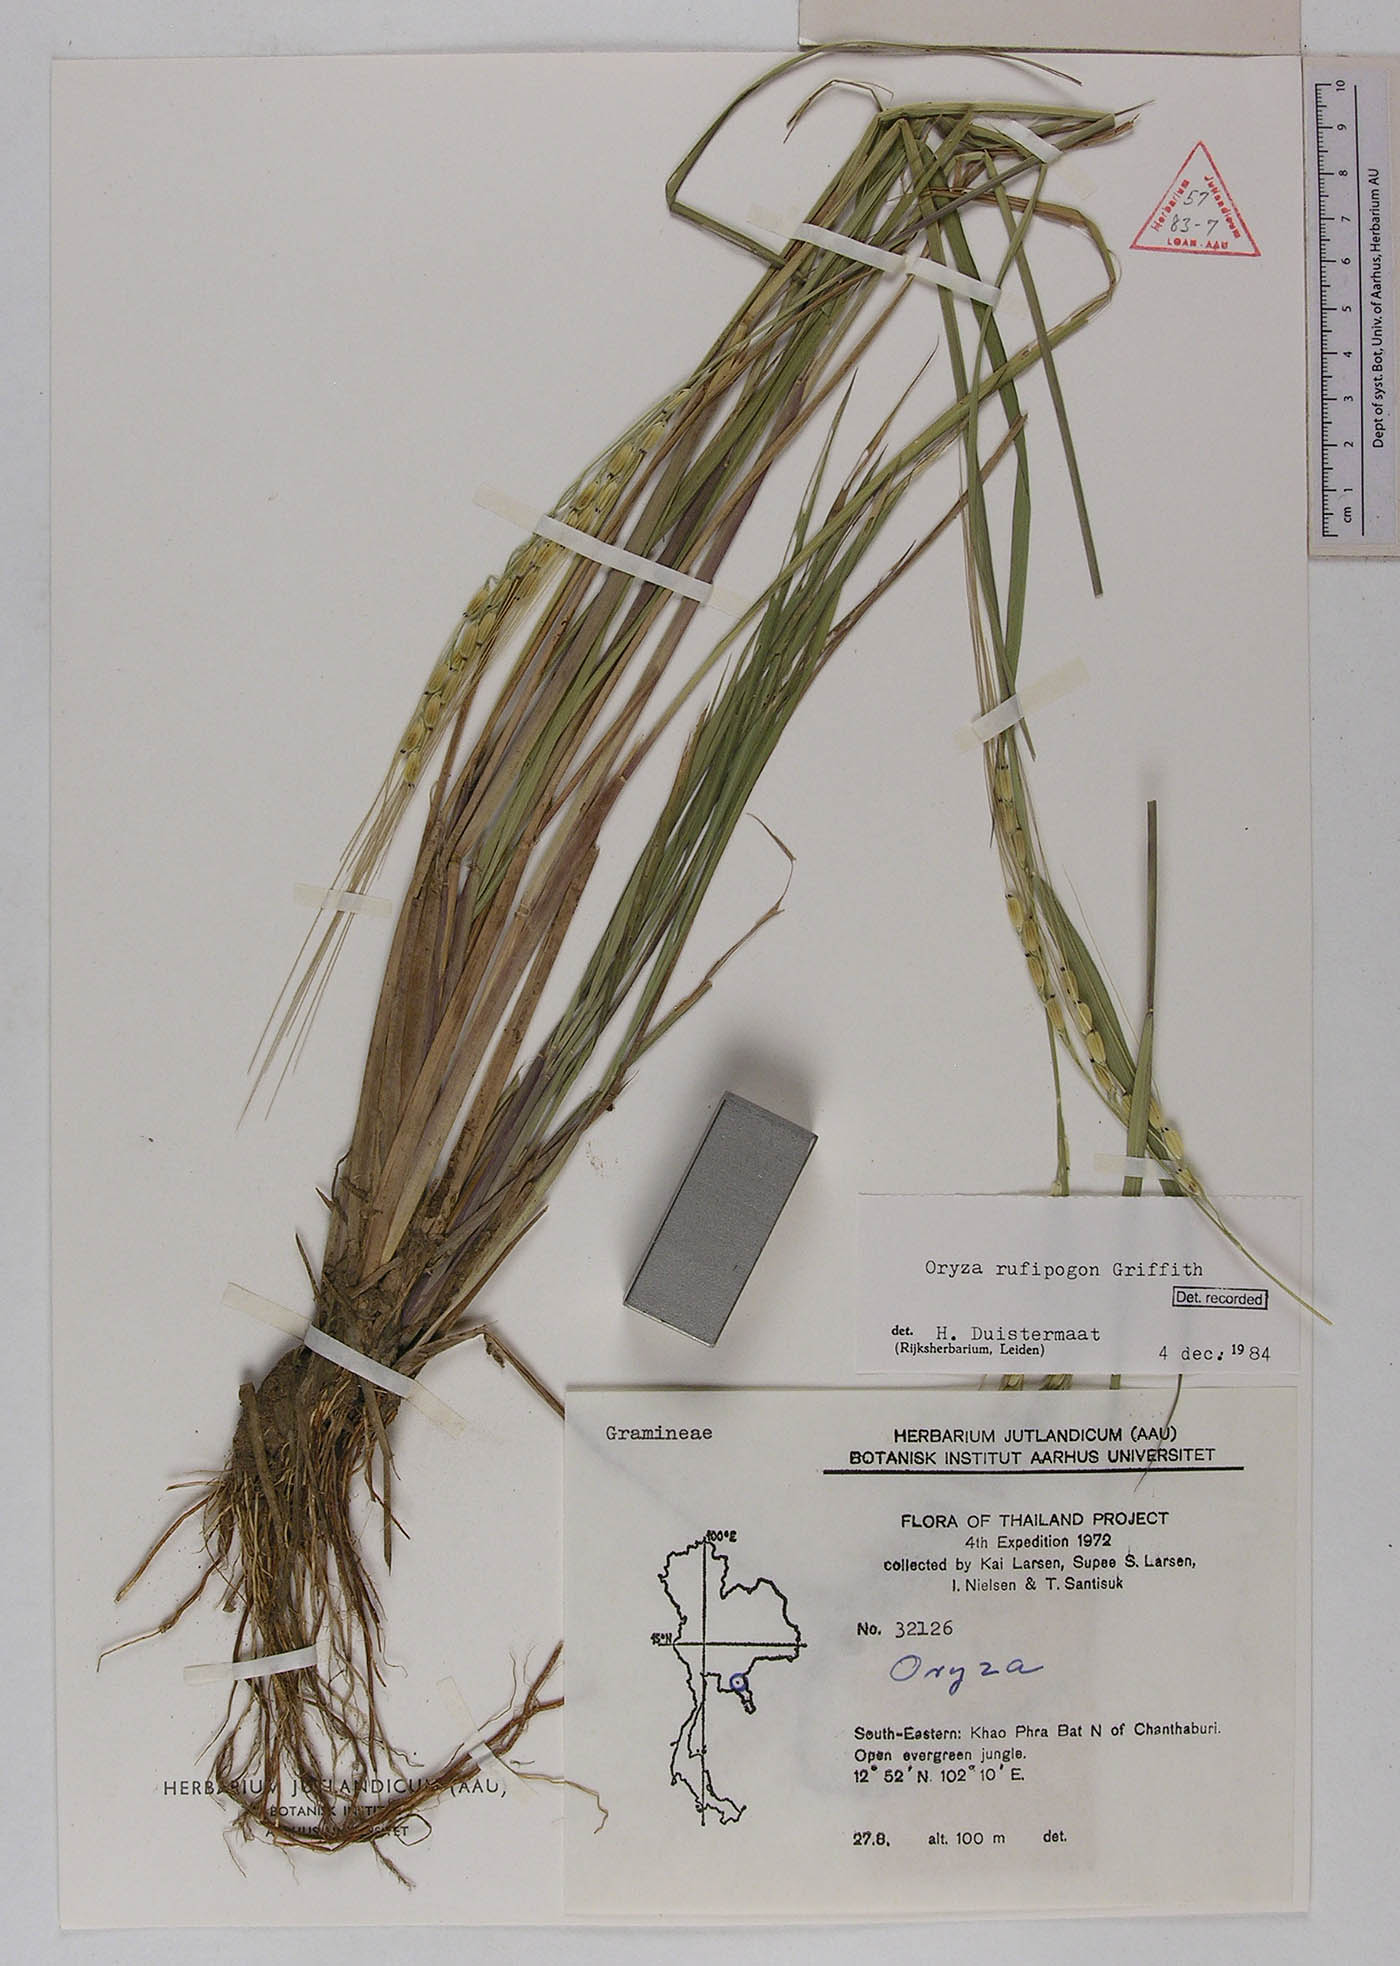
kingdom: Plantae
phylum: Tracheophyta
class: Liliopsida
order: Poales
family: Poaceae
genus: Oryza
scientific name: Oryza rufipogon
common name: Red rice
